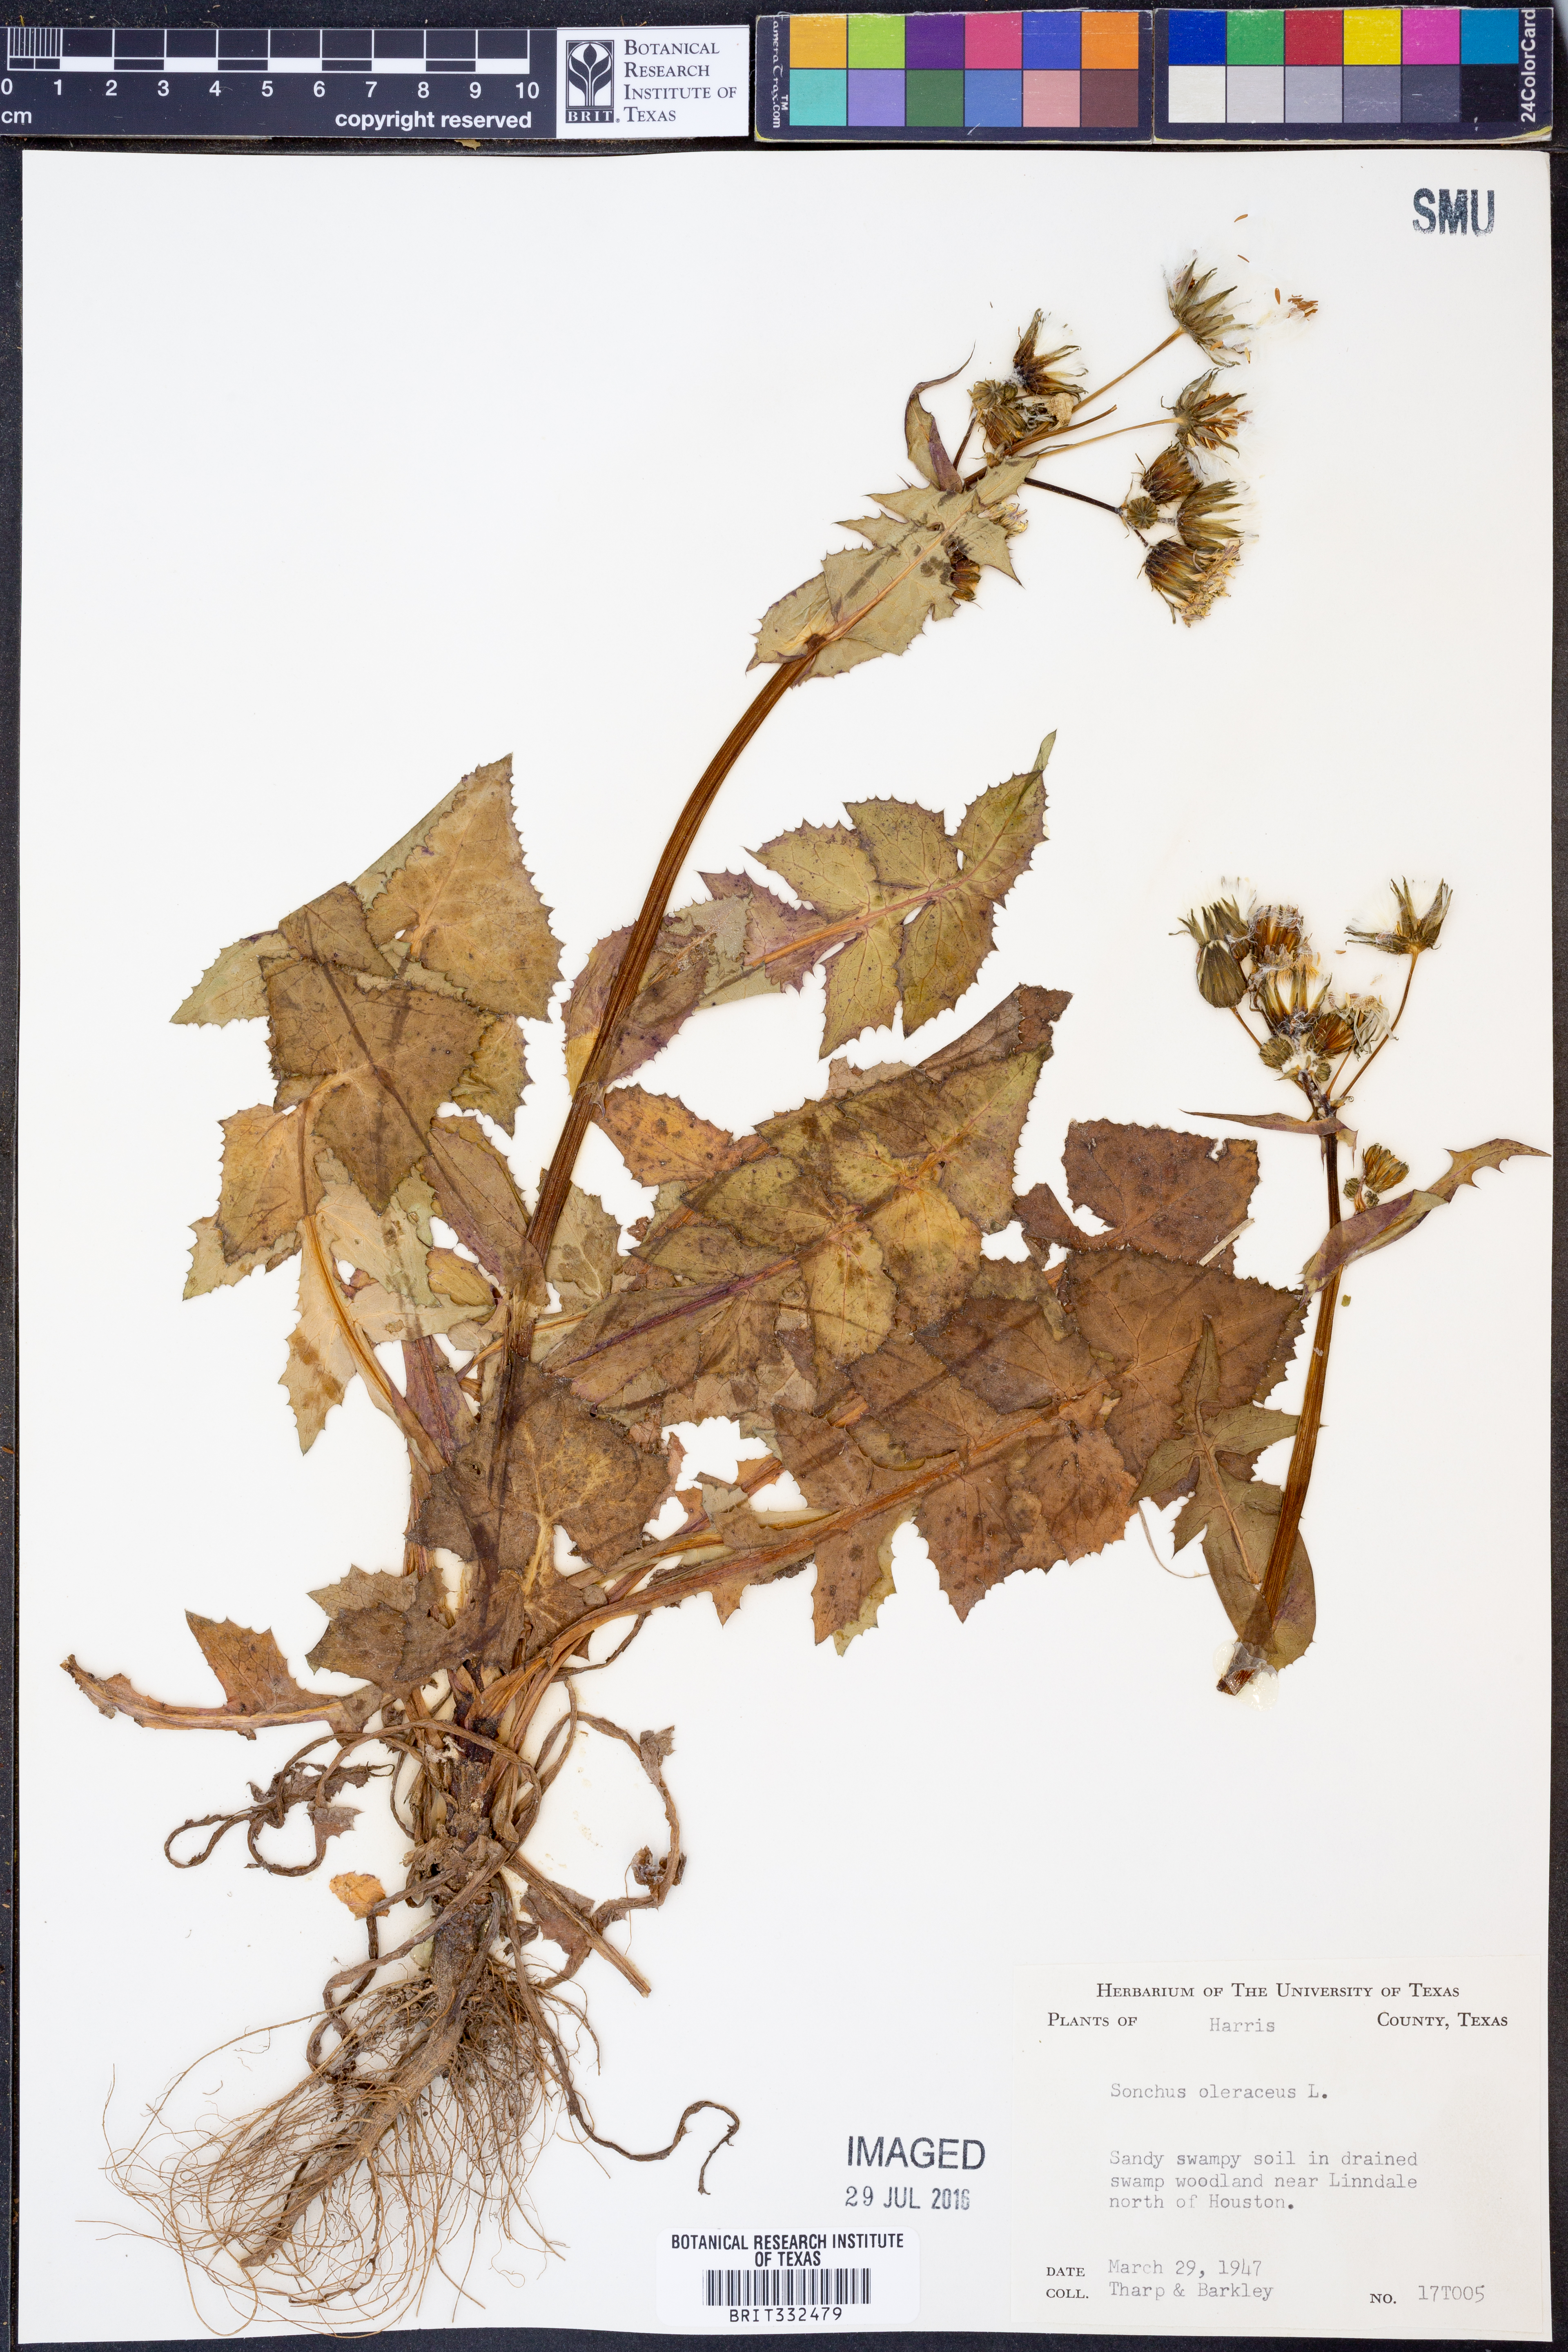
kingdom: Plantae
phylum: Tracheophyta
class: Magnoliopsida
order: Asterales
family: Asteraceae
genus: Sonchus
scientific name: Sonchus oleraceus
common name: Common sowthistle
